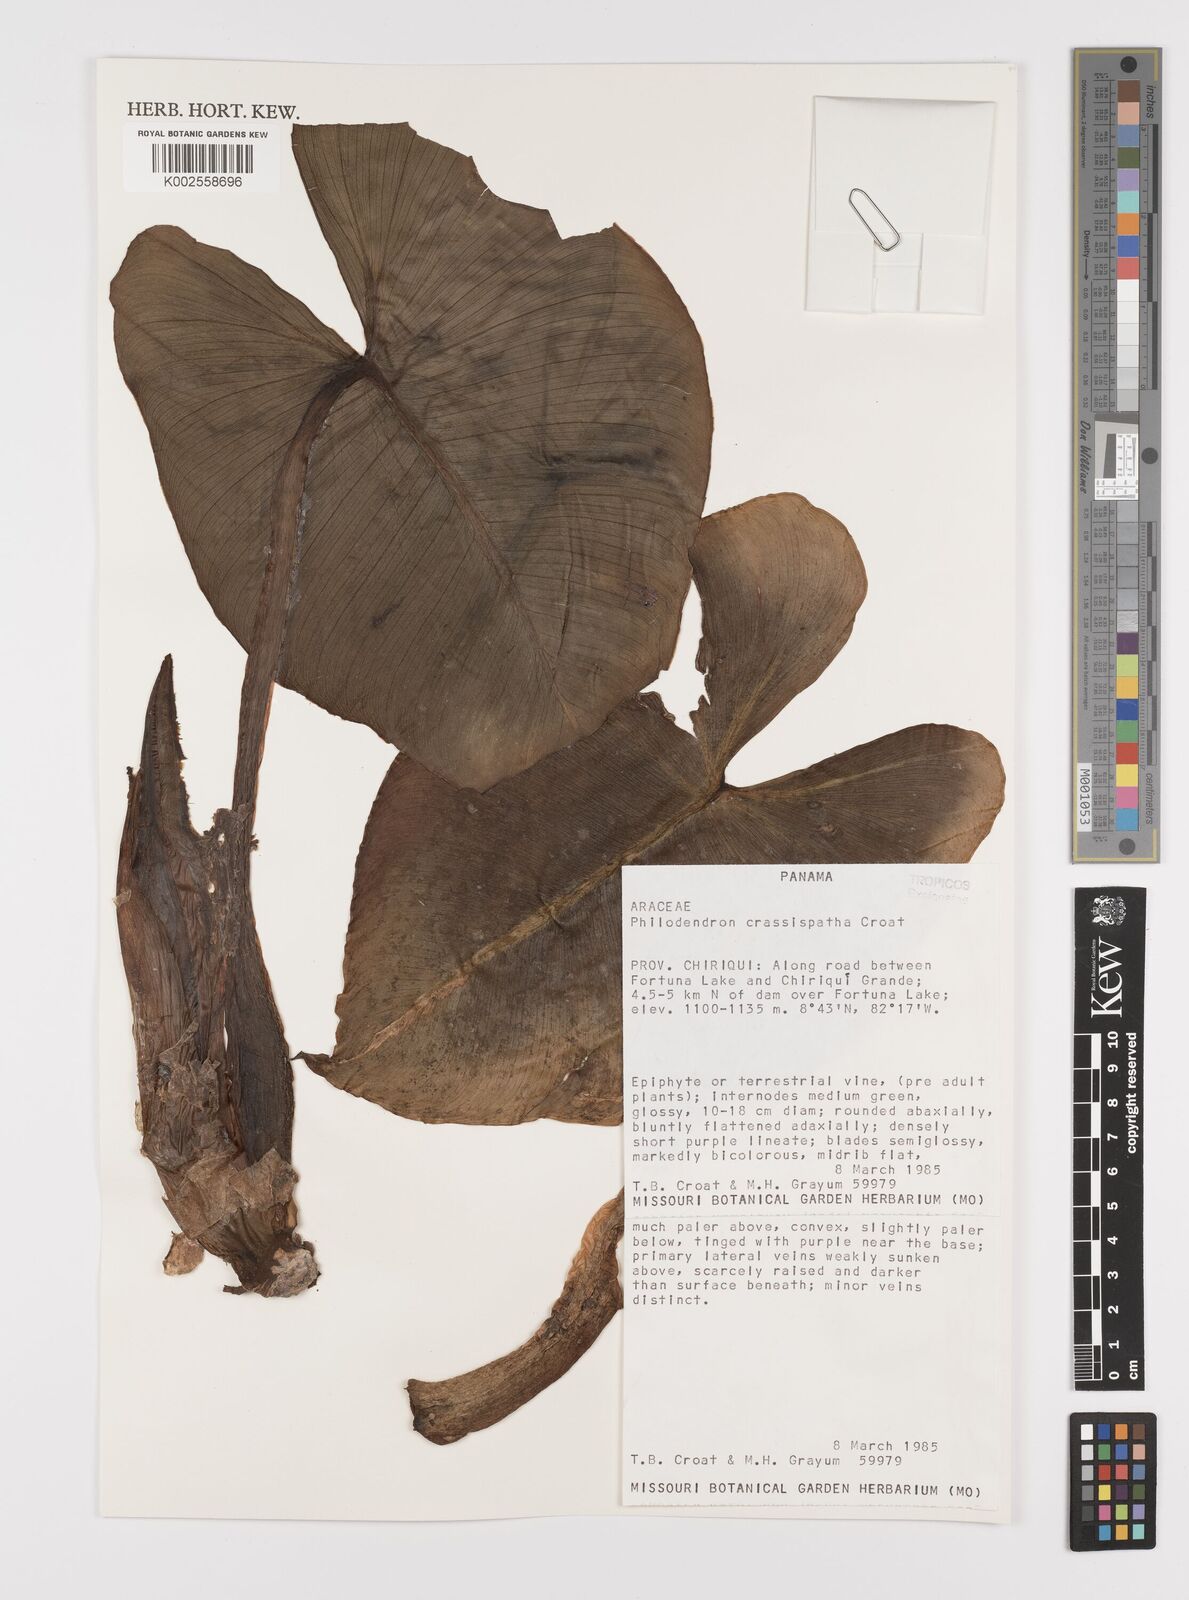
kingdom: Plantae
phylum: Tracheophyta
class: Liliopsida
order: Alismatales
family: Araceae
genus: Philodendron
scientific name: Philodendron crassispathum
